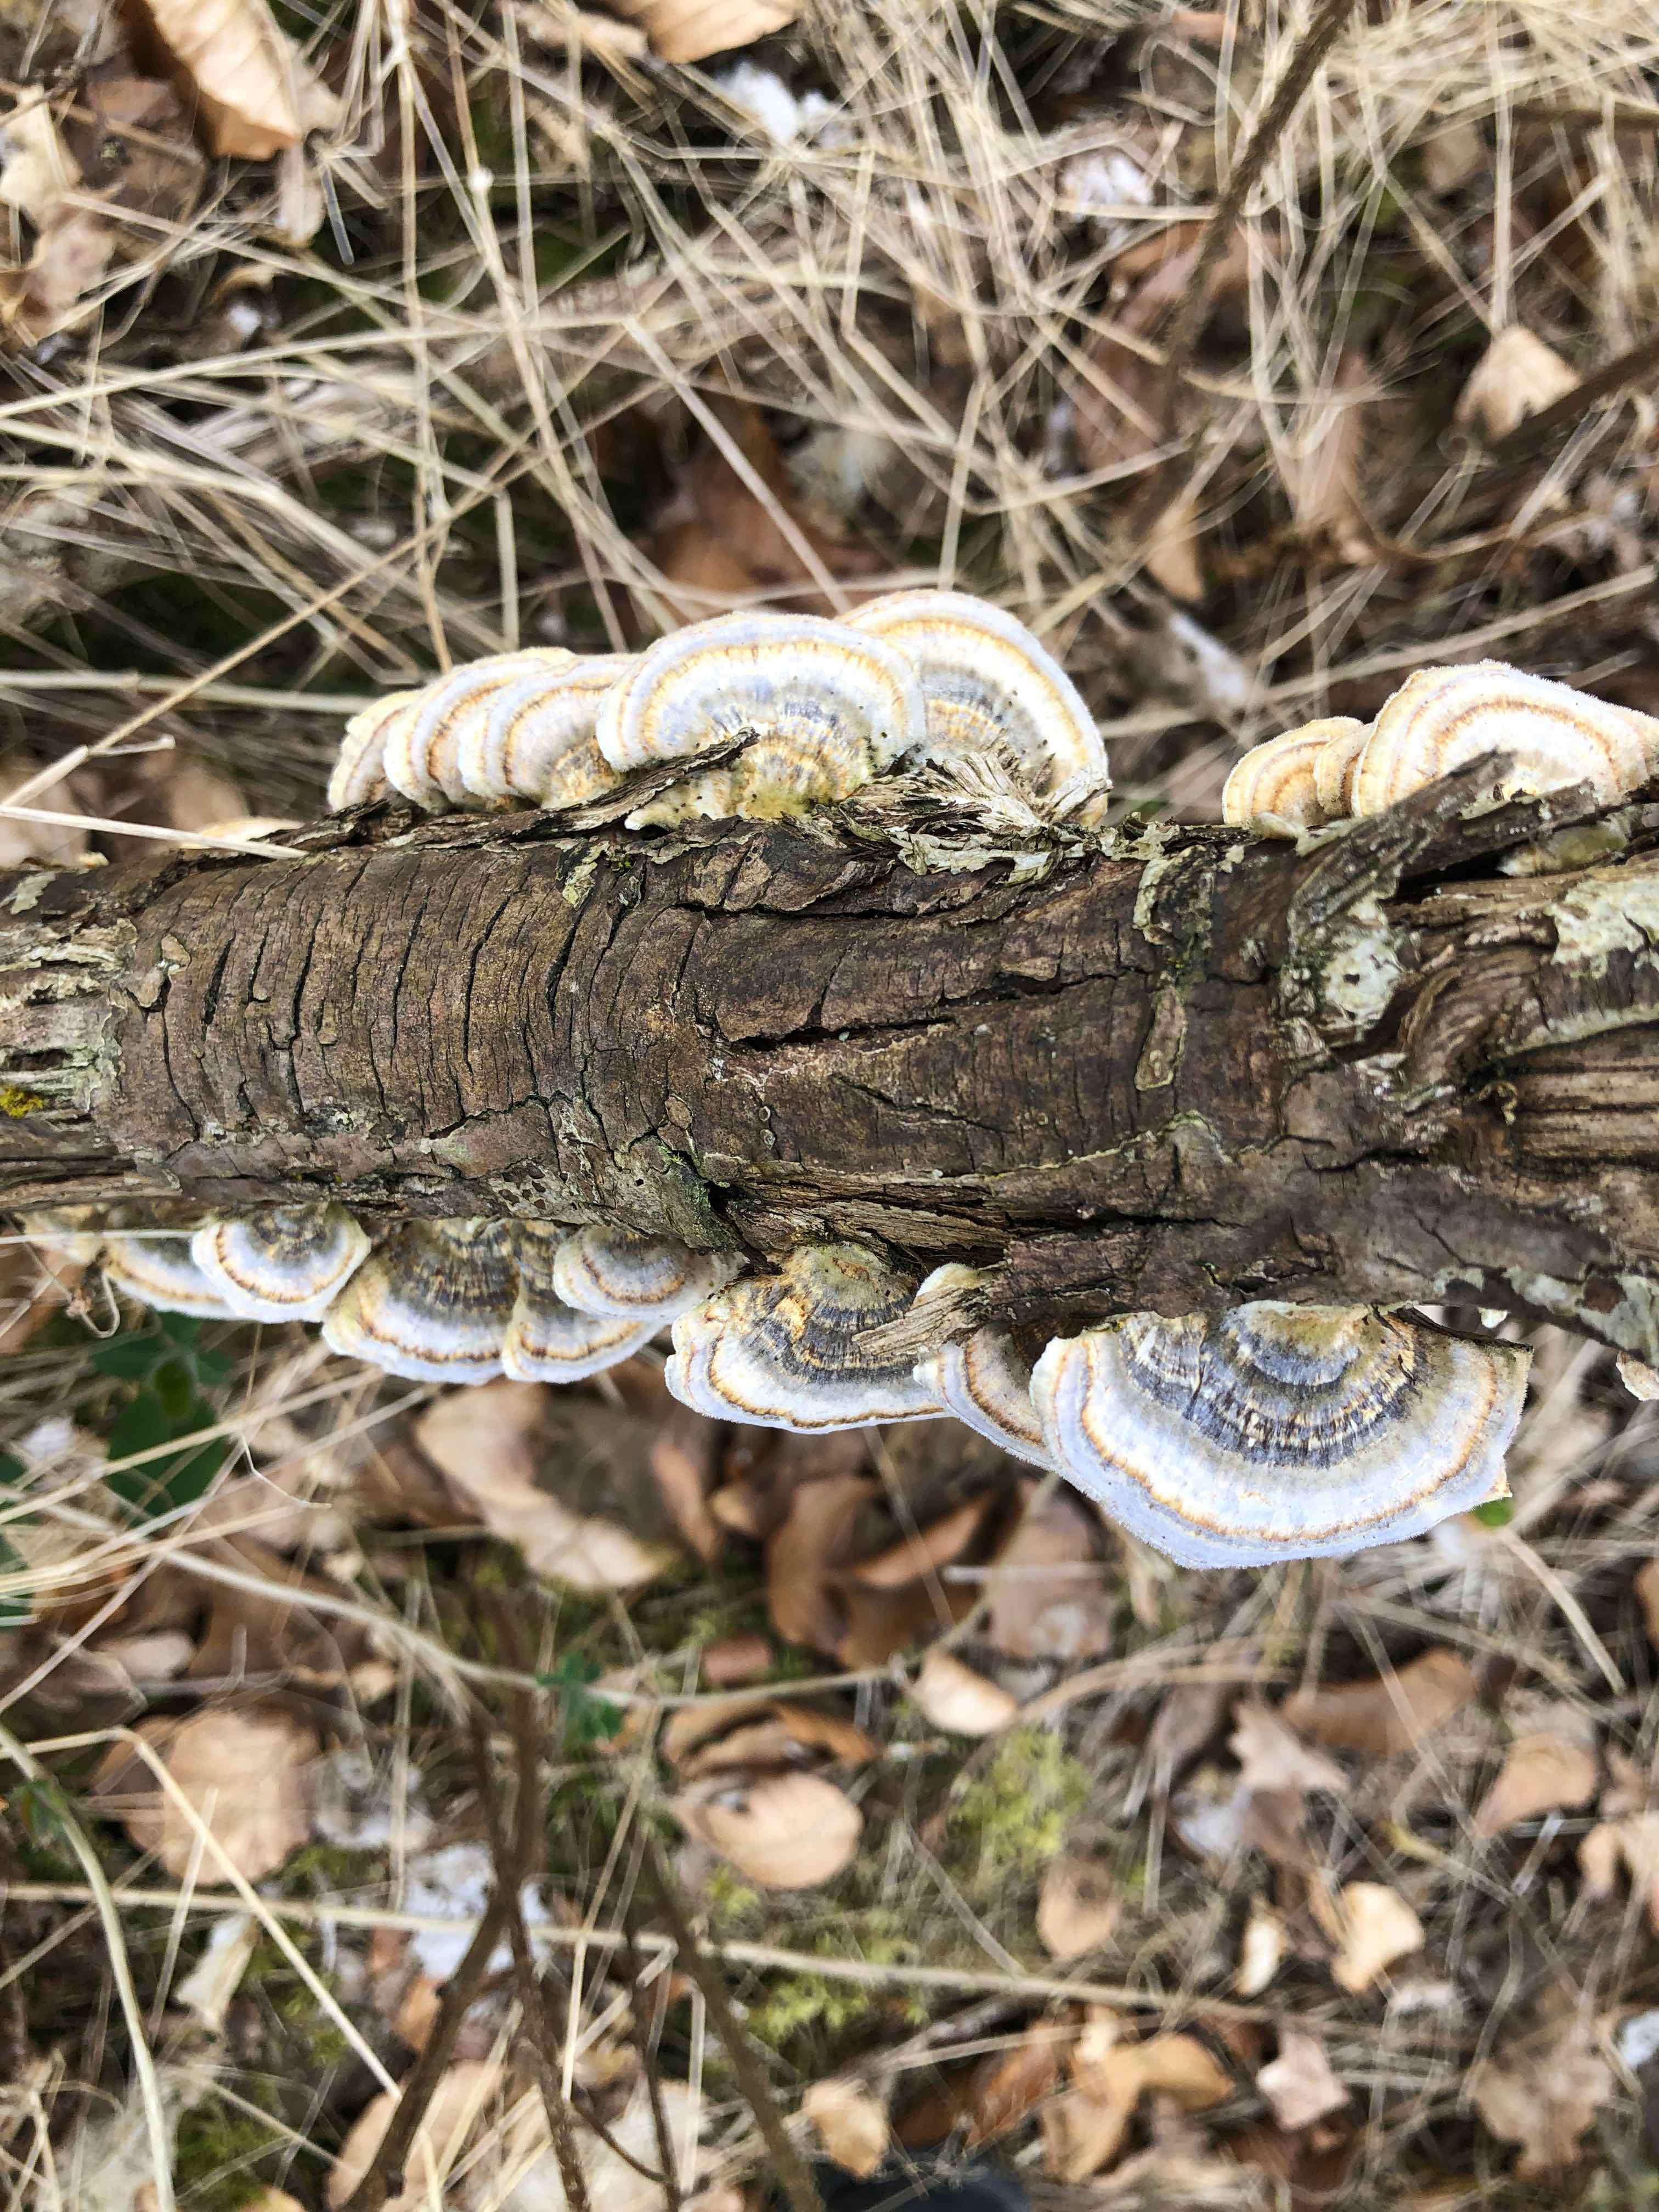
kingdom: Fungi
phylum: Basidiomycota
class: Agaricomycetes
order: Polyporales
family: Polyporaceae
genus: Trametes
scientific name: Trametes versicolor
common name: broget læderporesvamp
